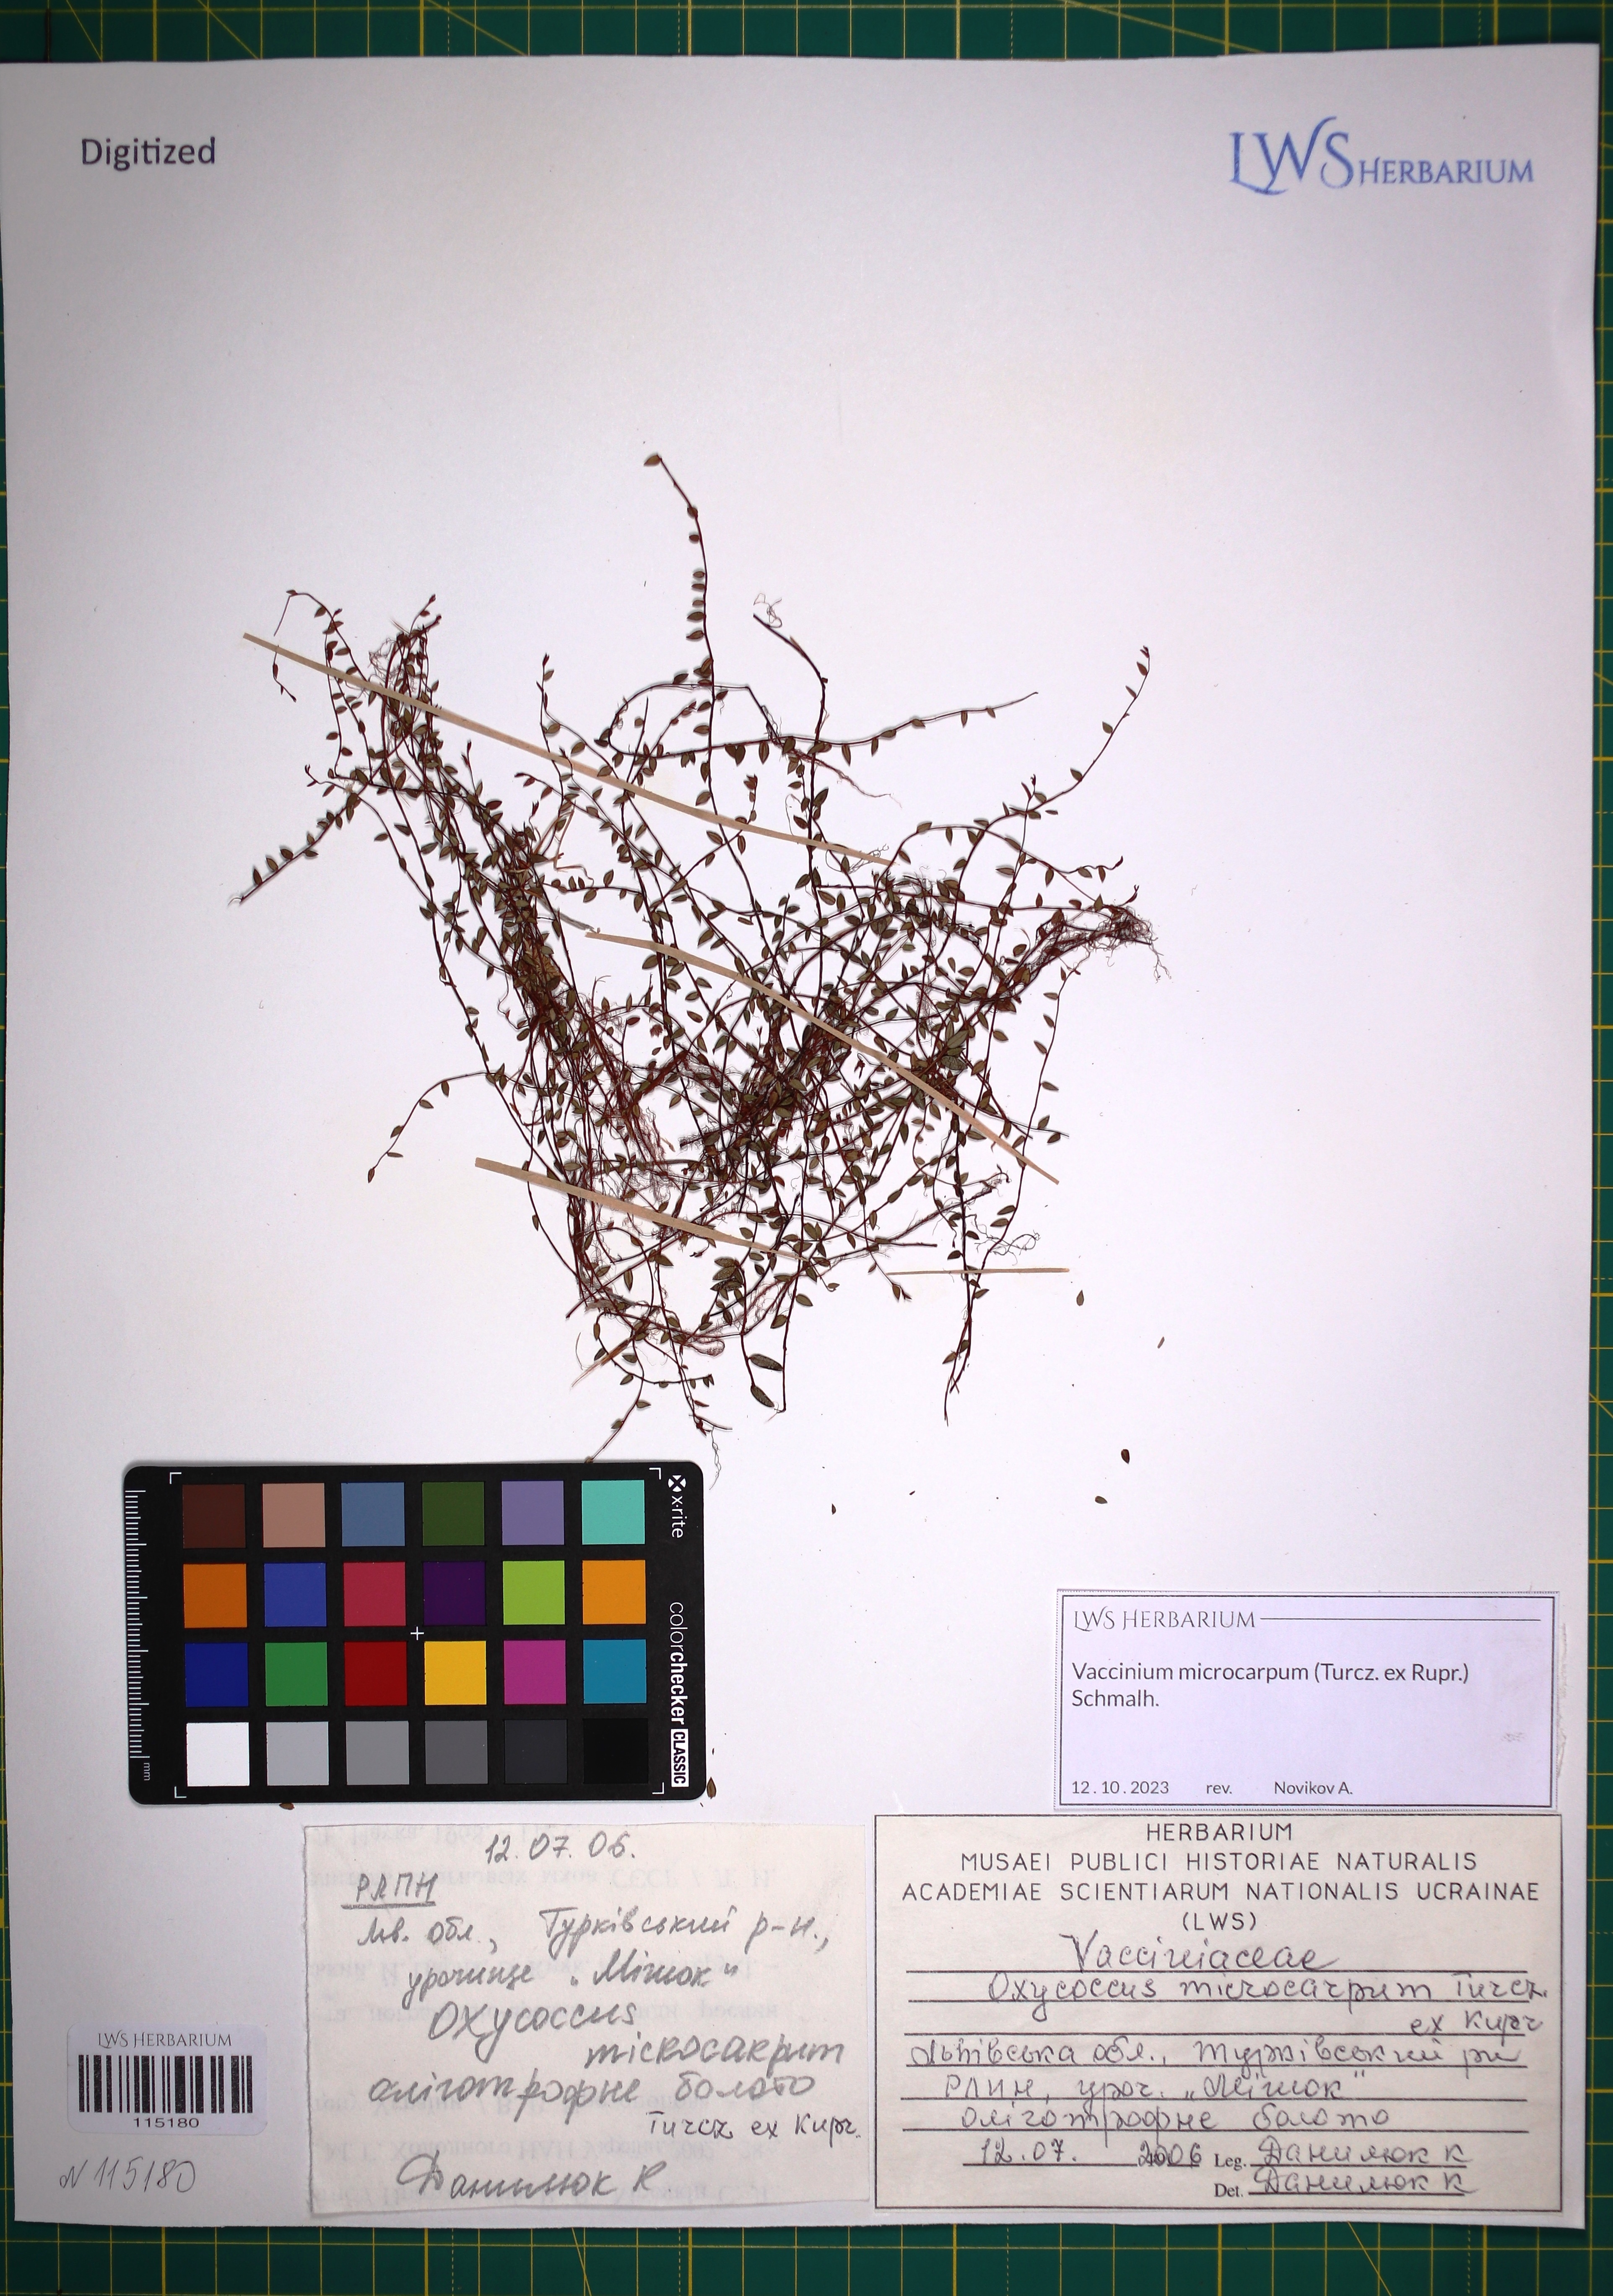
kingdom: Plantae
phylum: Tracheophyta
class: Magnoliopsida
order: Ericales
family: Ericaceae
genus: Vaccinium
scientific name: Vaccinium microcarpum
